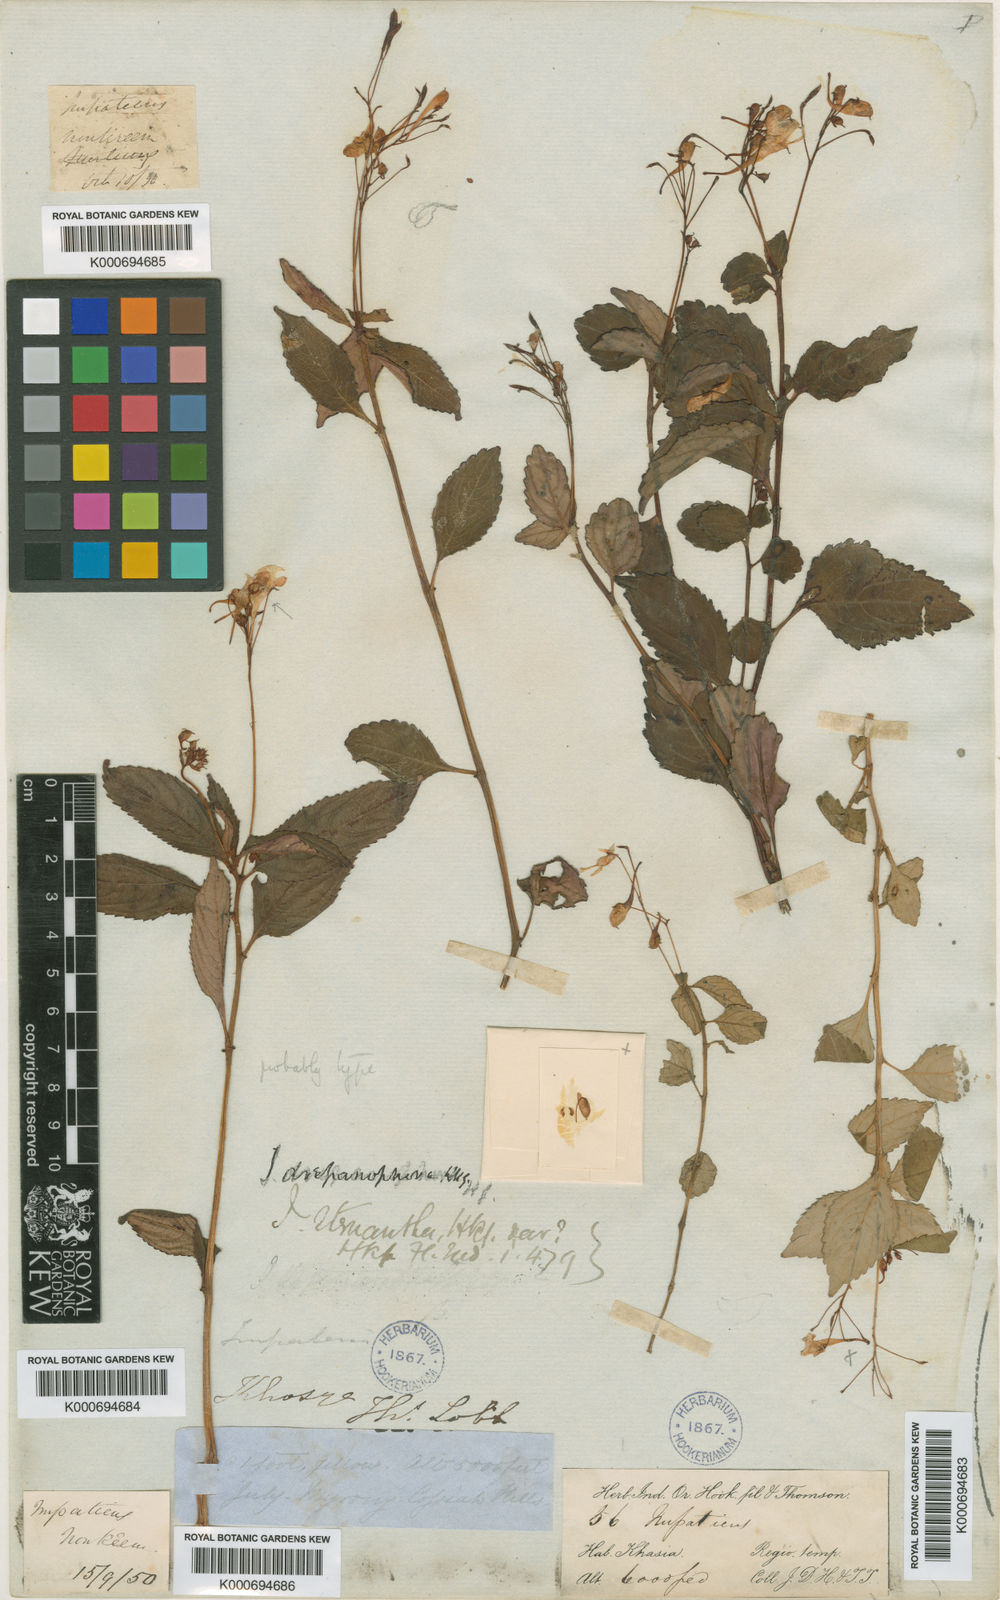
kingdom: Plantae
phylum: Tracheophyta
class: Magnoliopsida
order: Ericales
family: Balsaminaceae
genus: Impatiens
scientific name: Impatiens drepanophora
